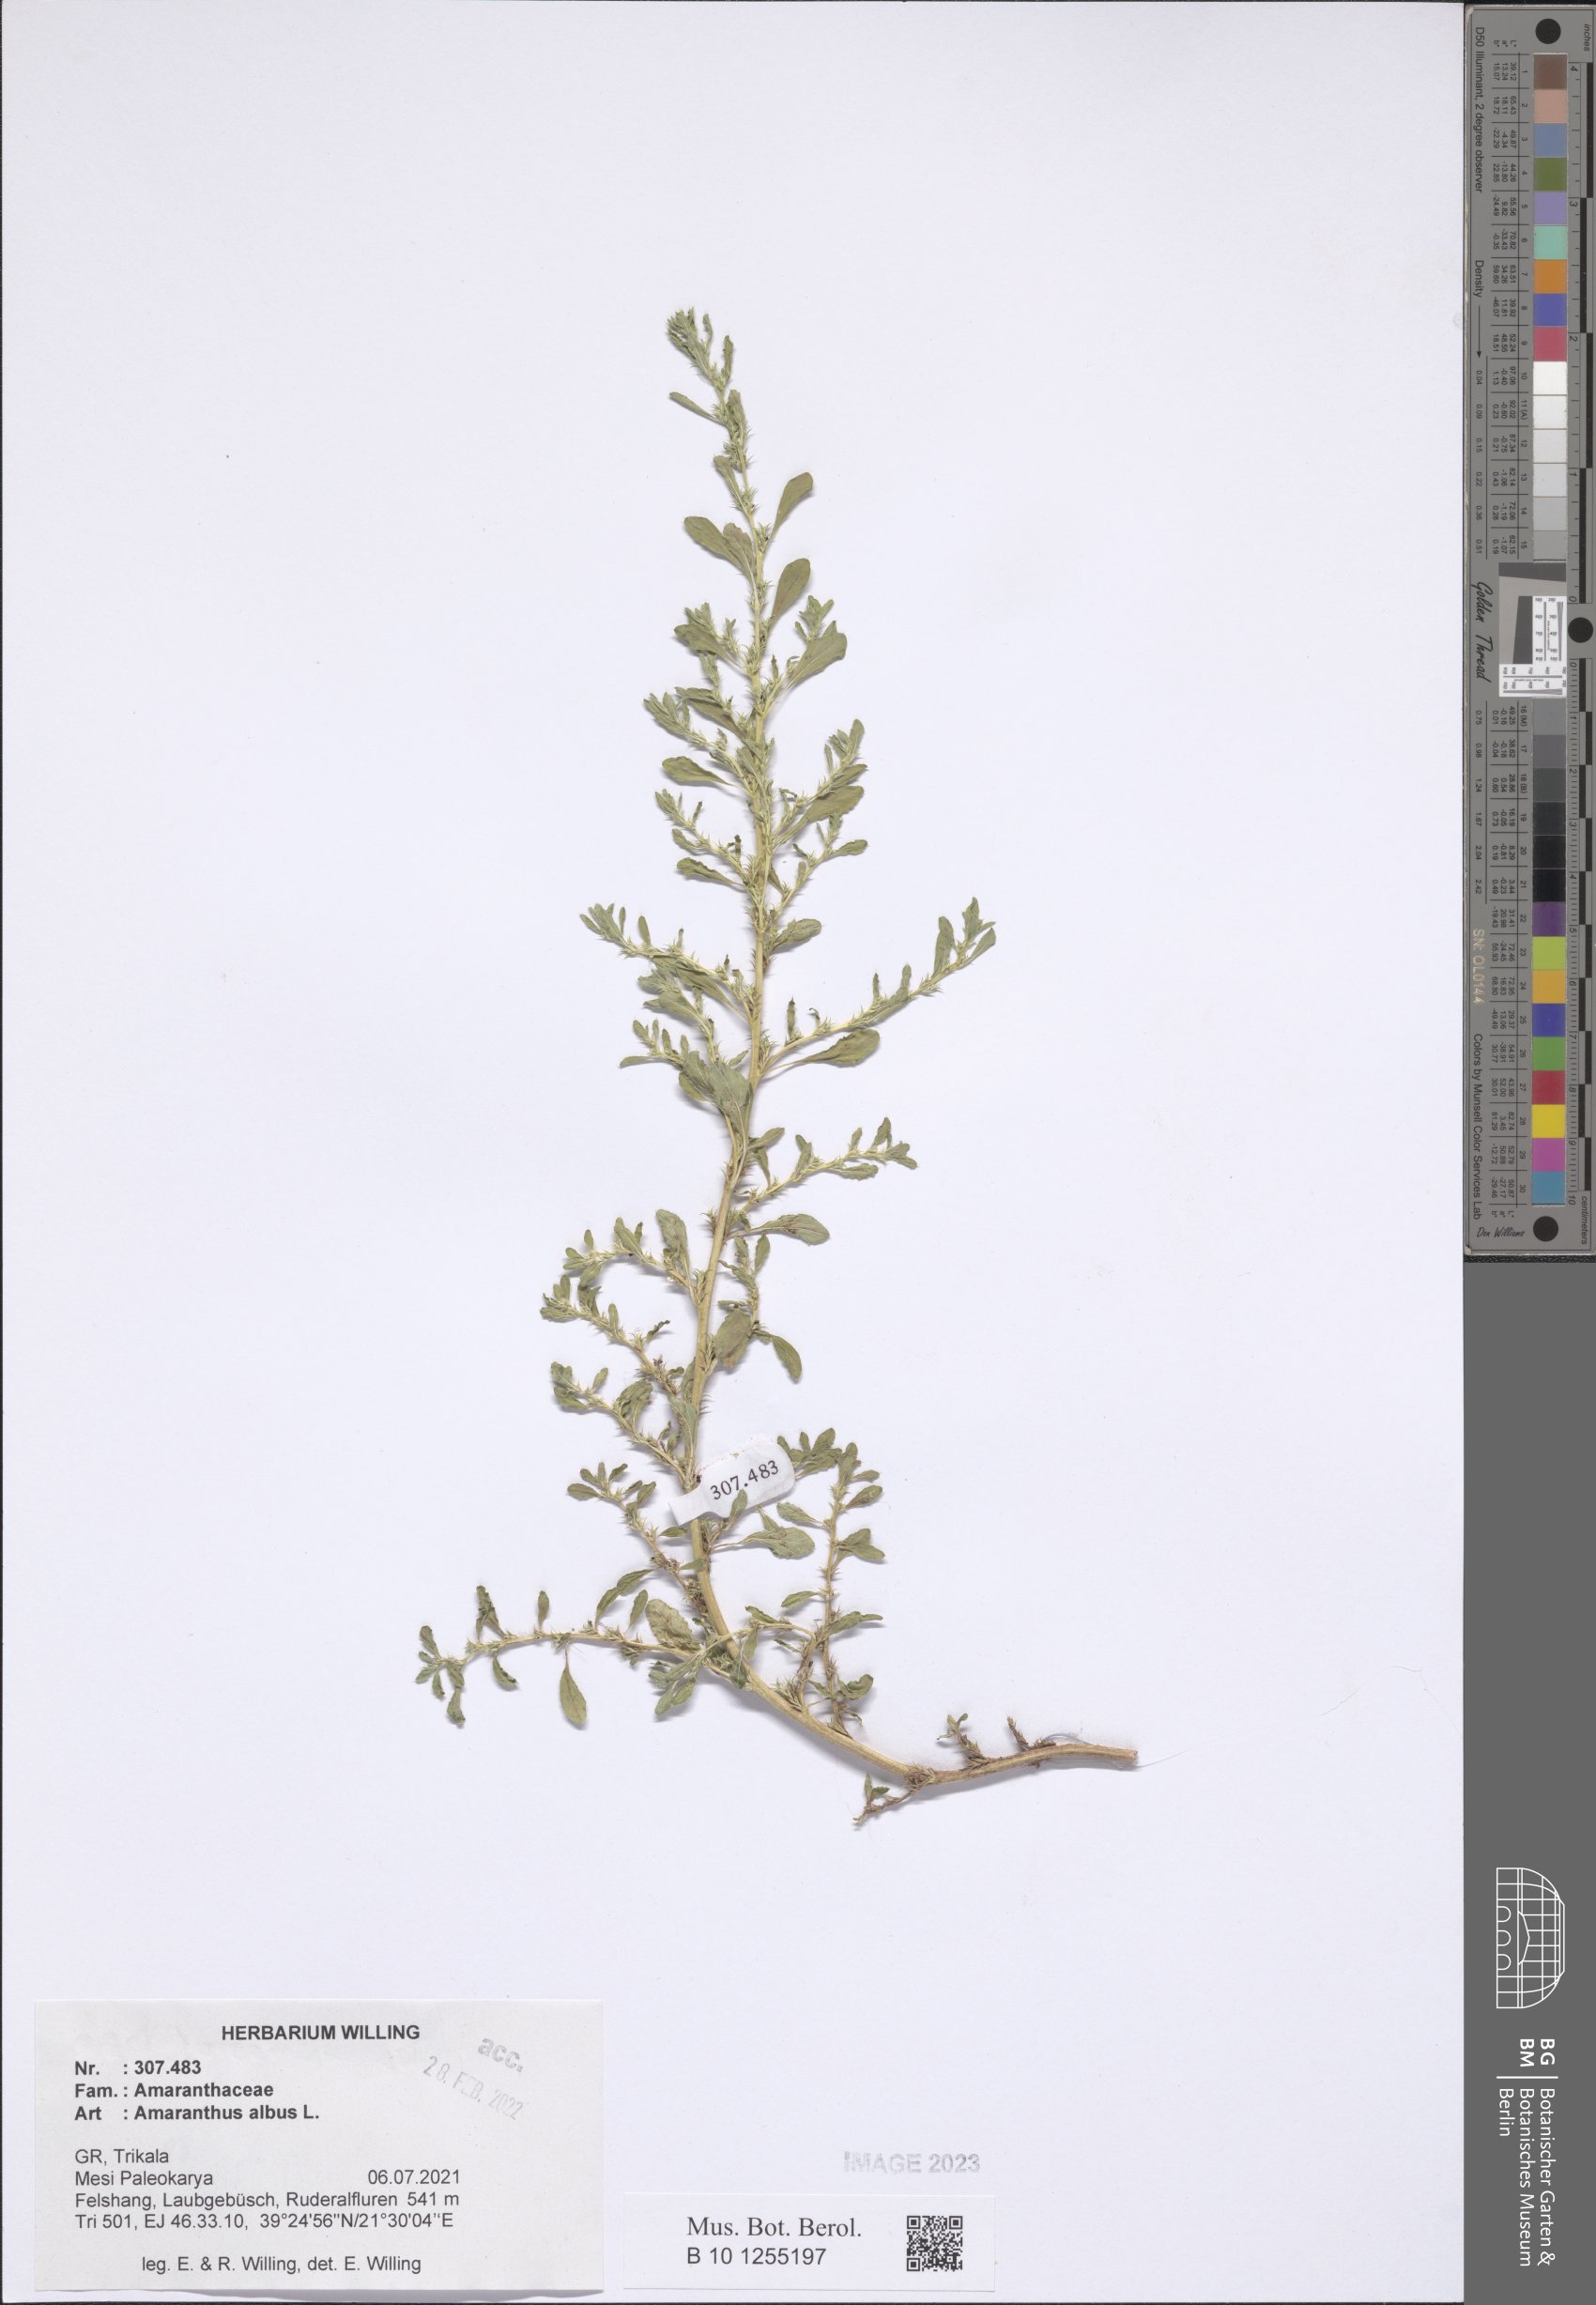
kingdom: Plantae
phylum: Tracheophyta
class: Magnoliopsida
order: Caryophyllales
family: Amaranthaceae
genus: Amaranthus
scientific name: Amaranthus albus
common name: White pigweed
